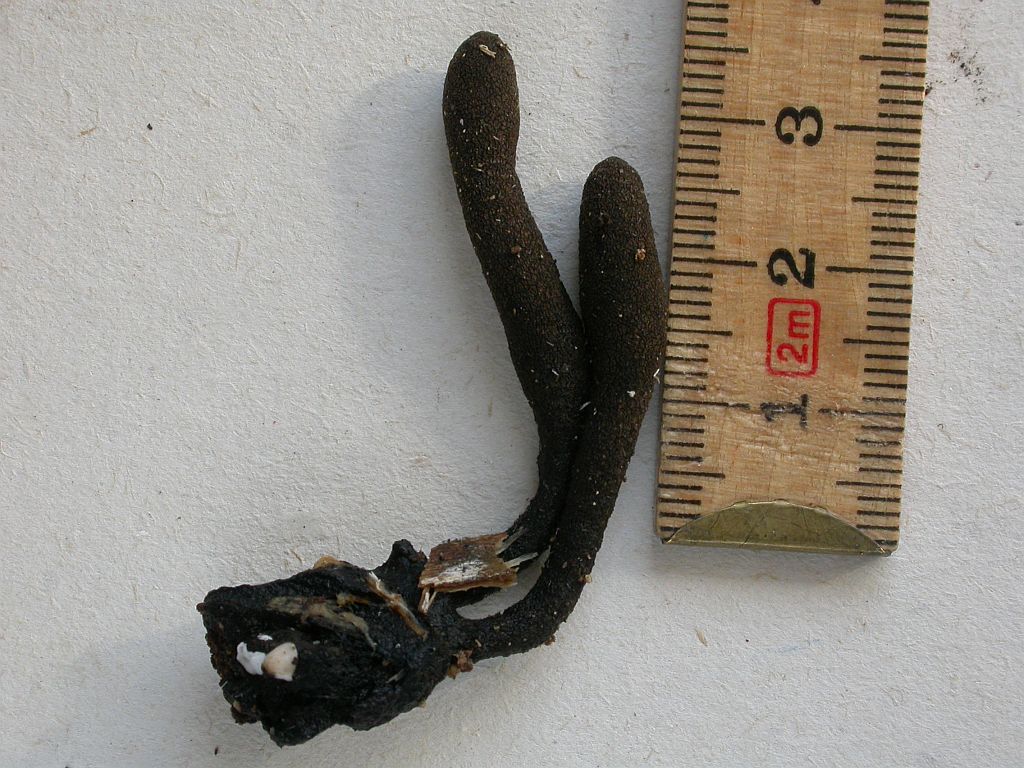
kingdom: Fungi
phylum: Ascomycota
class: Sordariomycetes
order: Xylariales
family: Xylariaceae
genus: Xylaria
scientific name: Xylaria longipes
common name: slank stødsvamp
